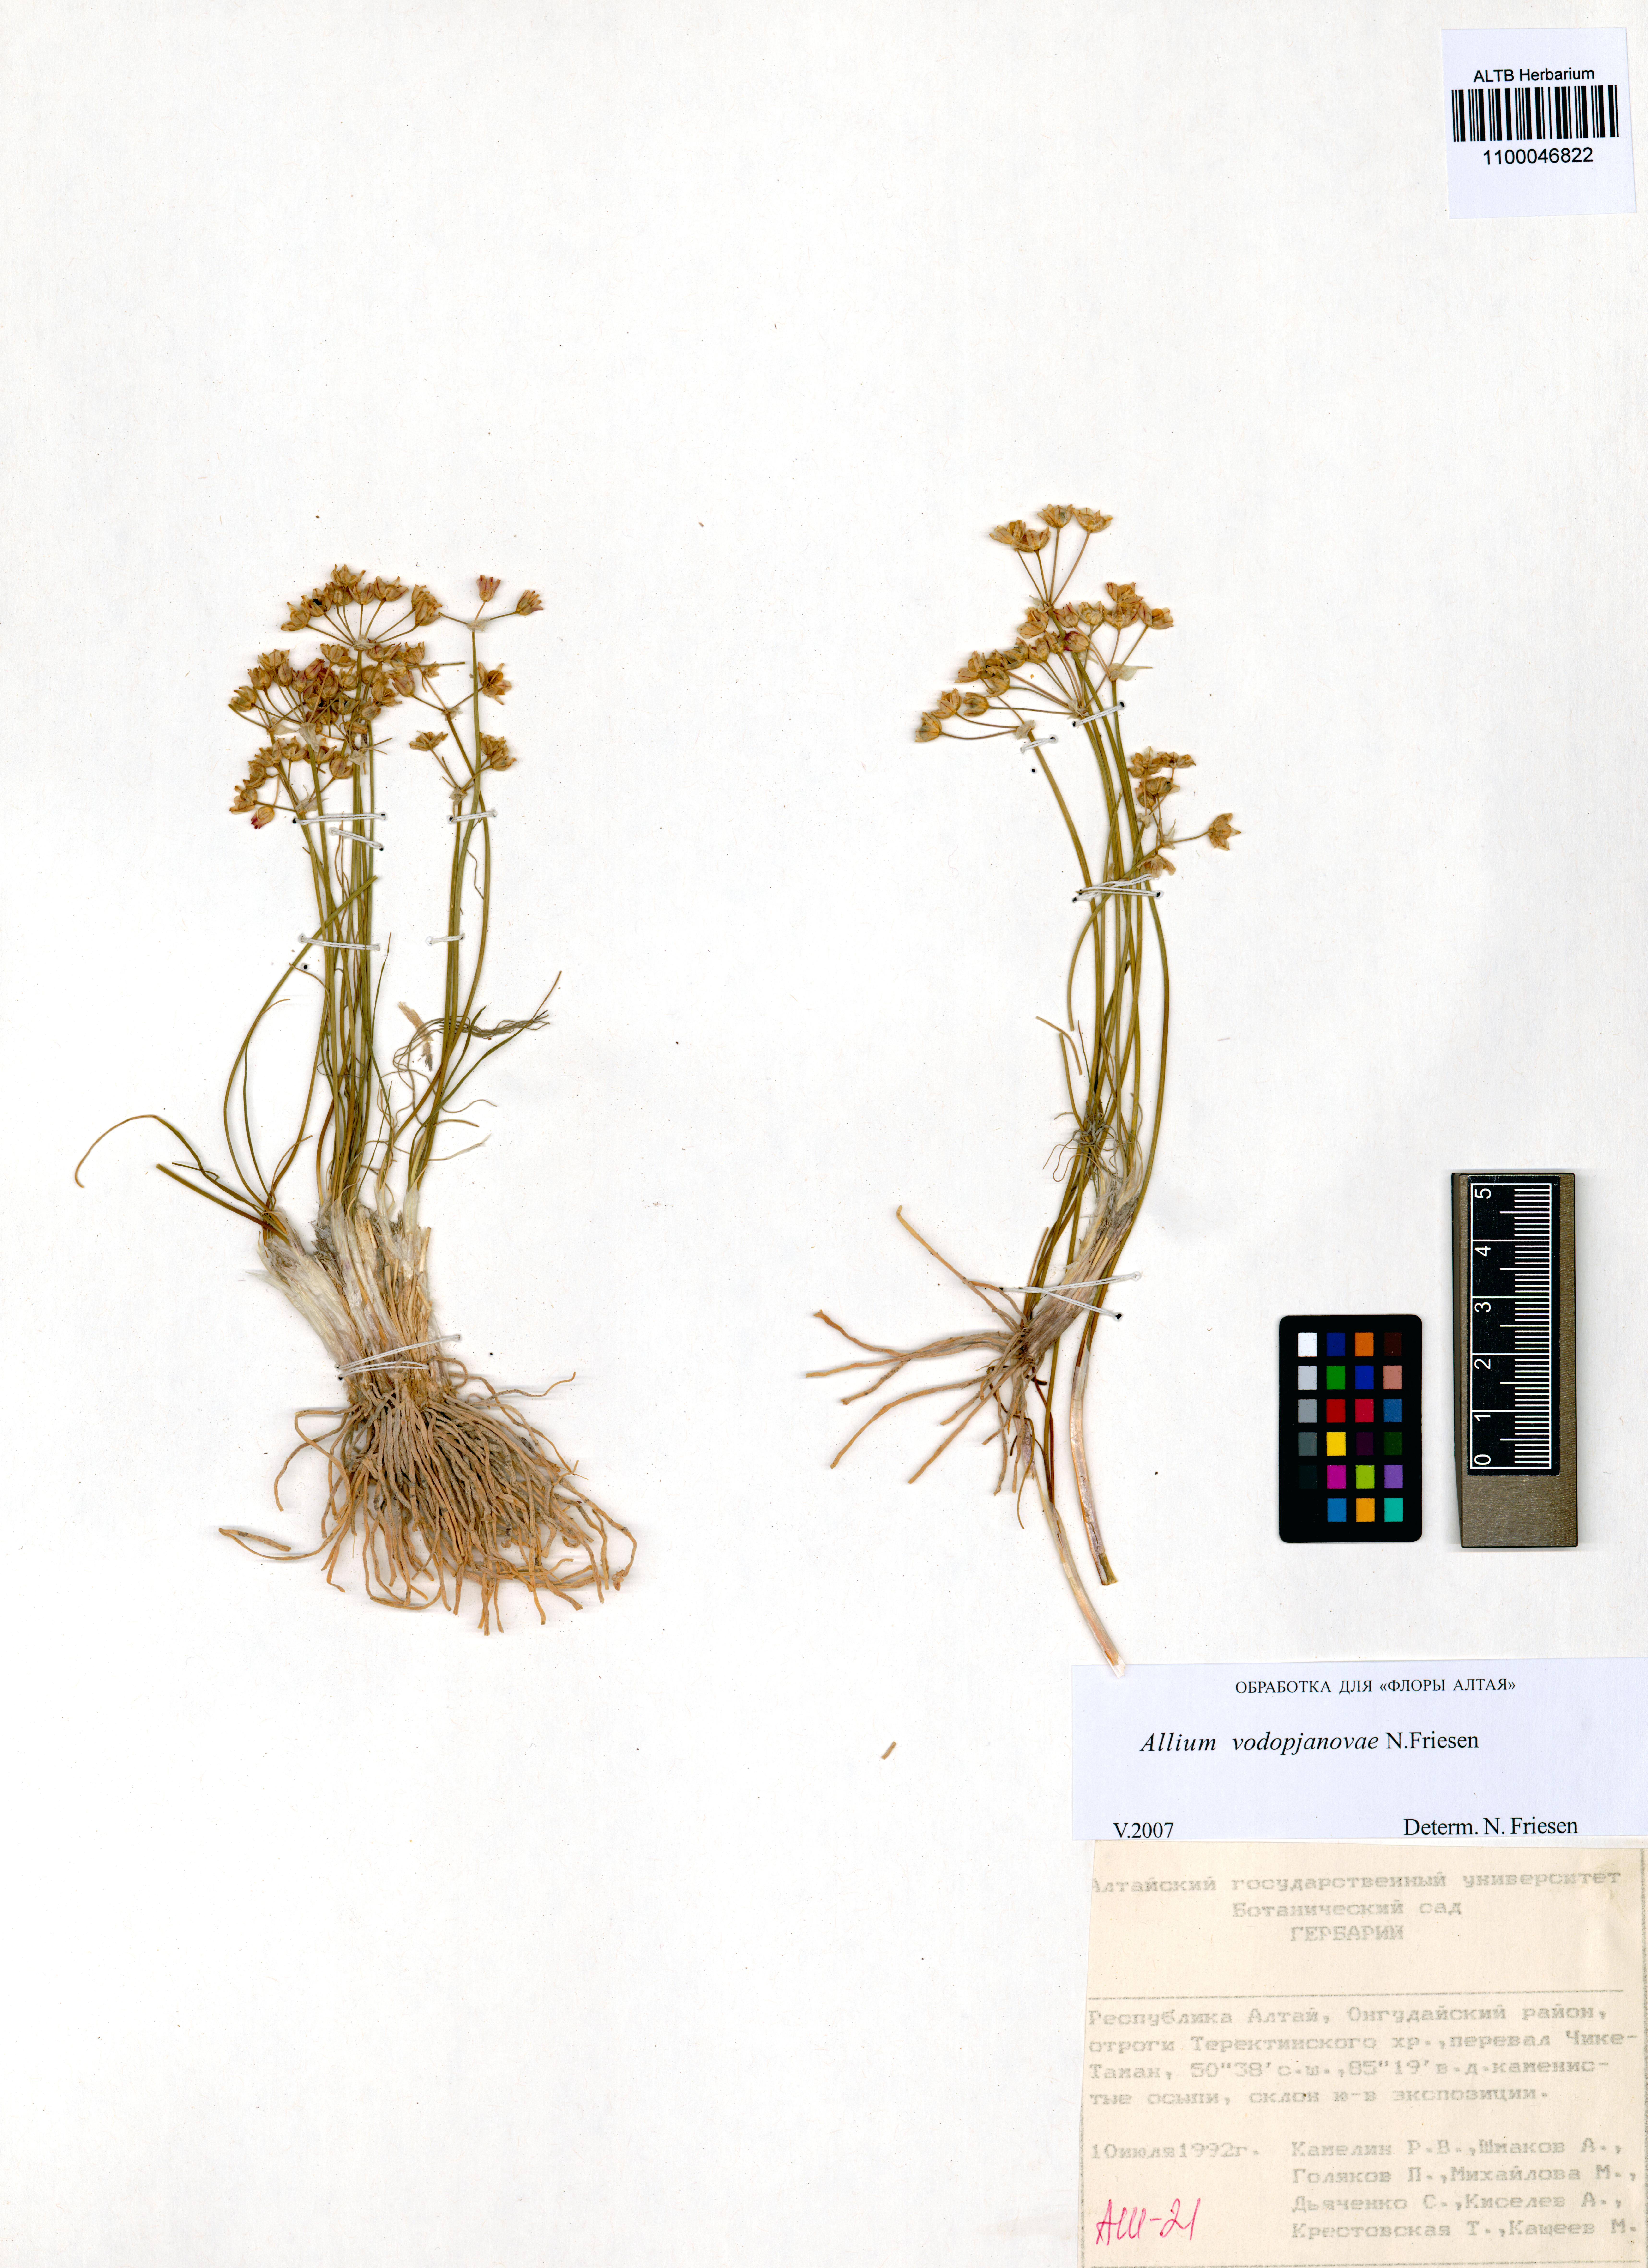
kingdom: Plantae
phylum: Tracheophyta
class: Liliopsida
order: Asparagales
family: Amaryllidaceae
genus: Allium
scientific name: Allium vodopjanovae
